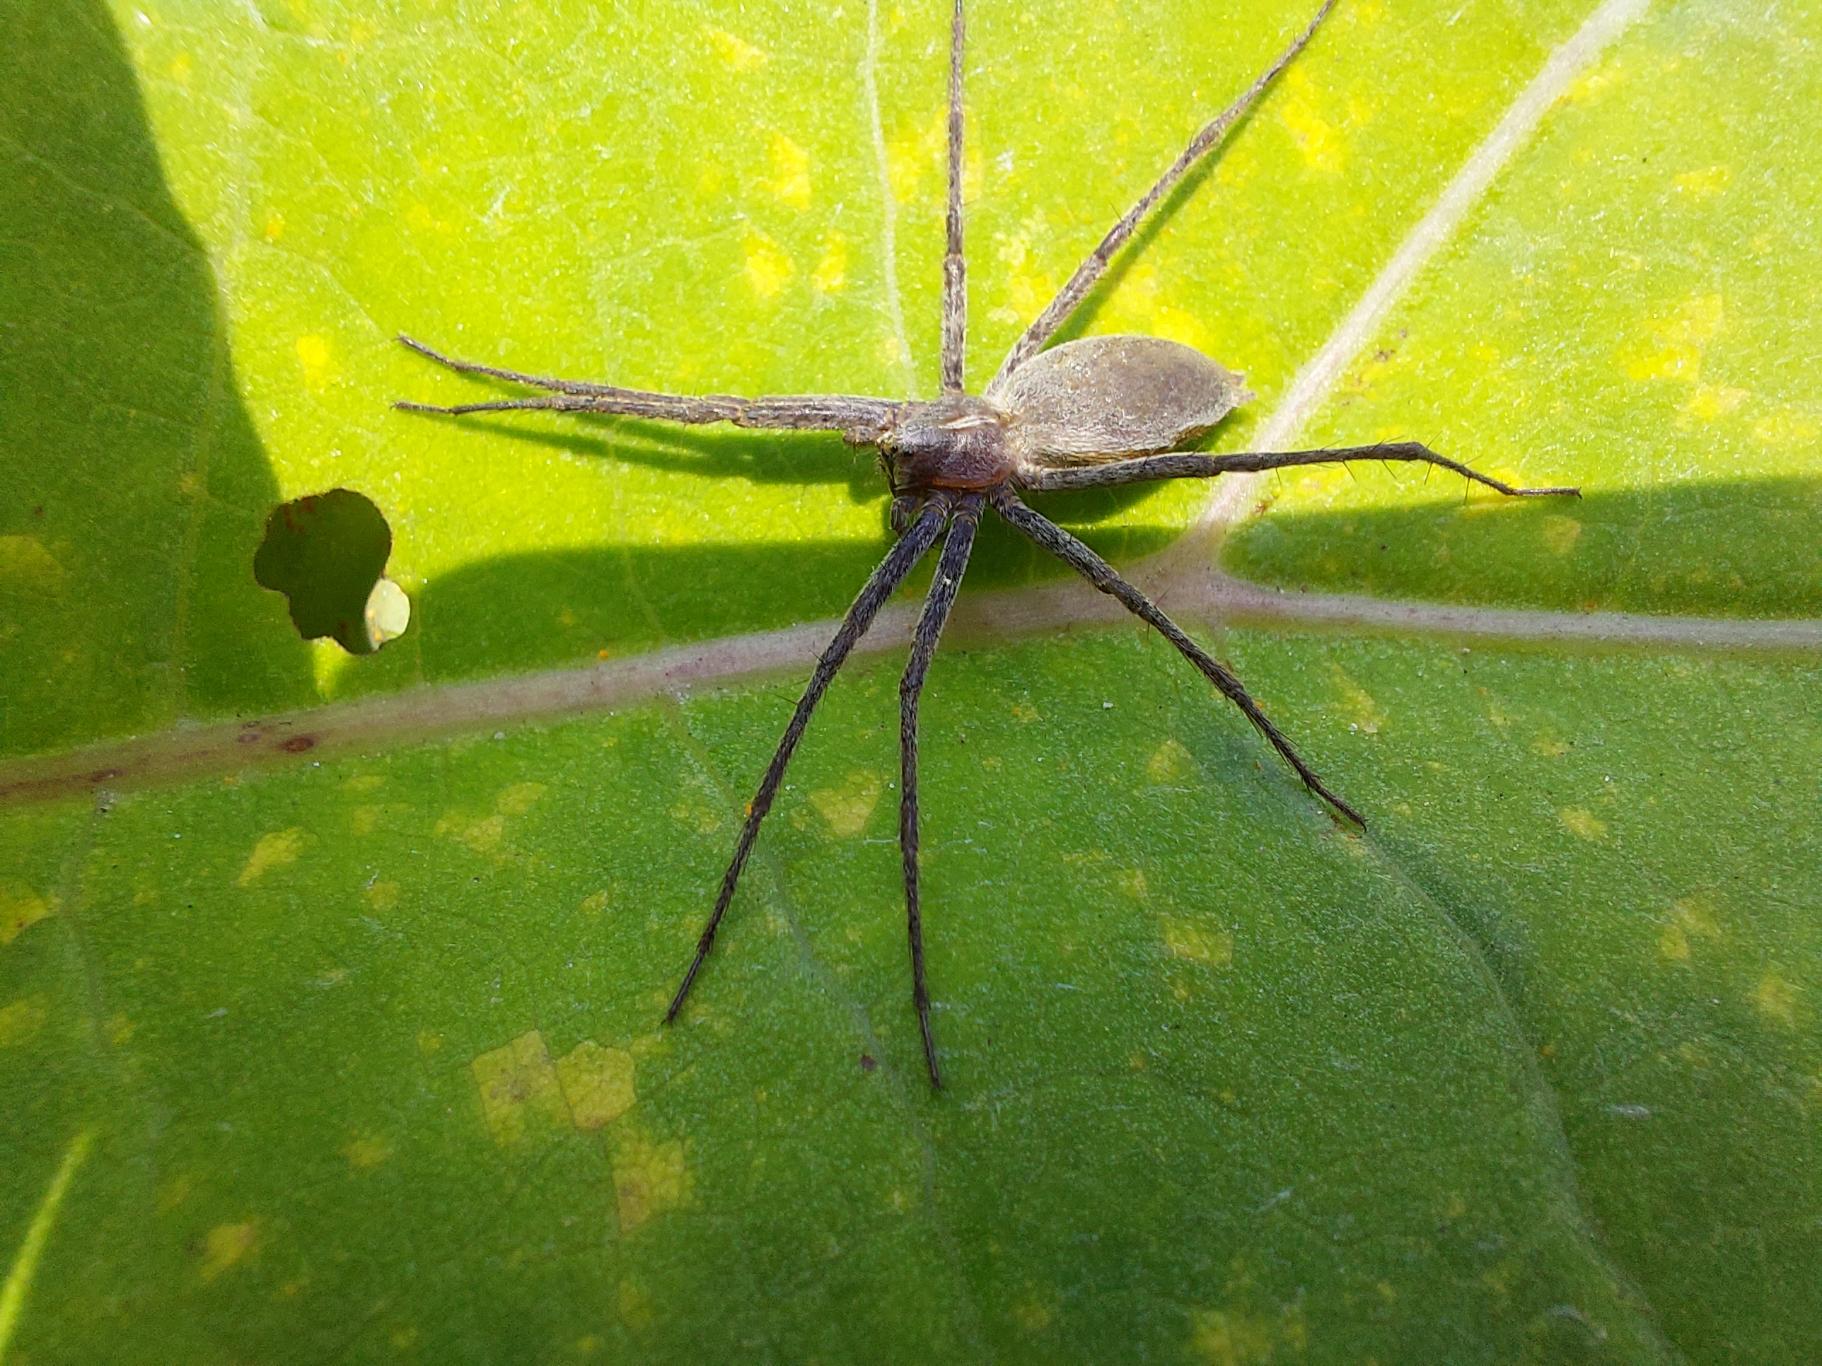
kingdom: Animalia
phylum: Arthropoda
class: Arachnida
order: Araneae
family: Pisauridae
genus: Pisaura
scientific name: Pisaura mirabilis
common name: Almindelig rovedderkop
